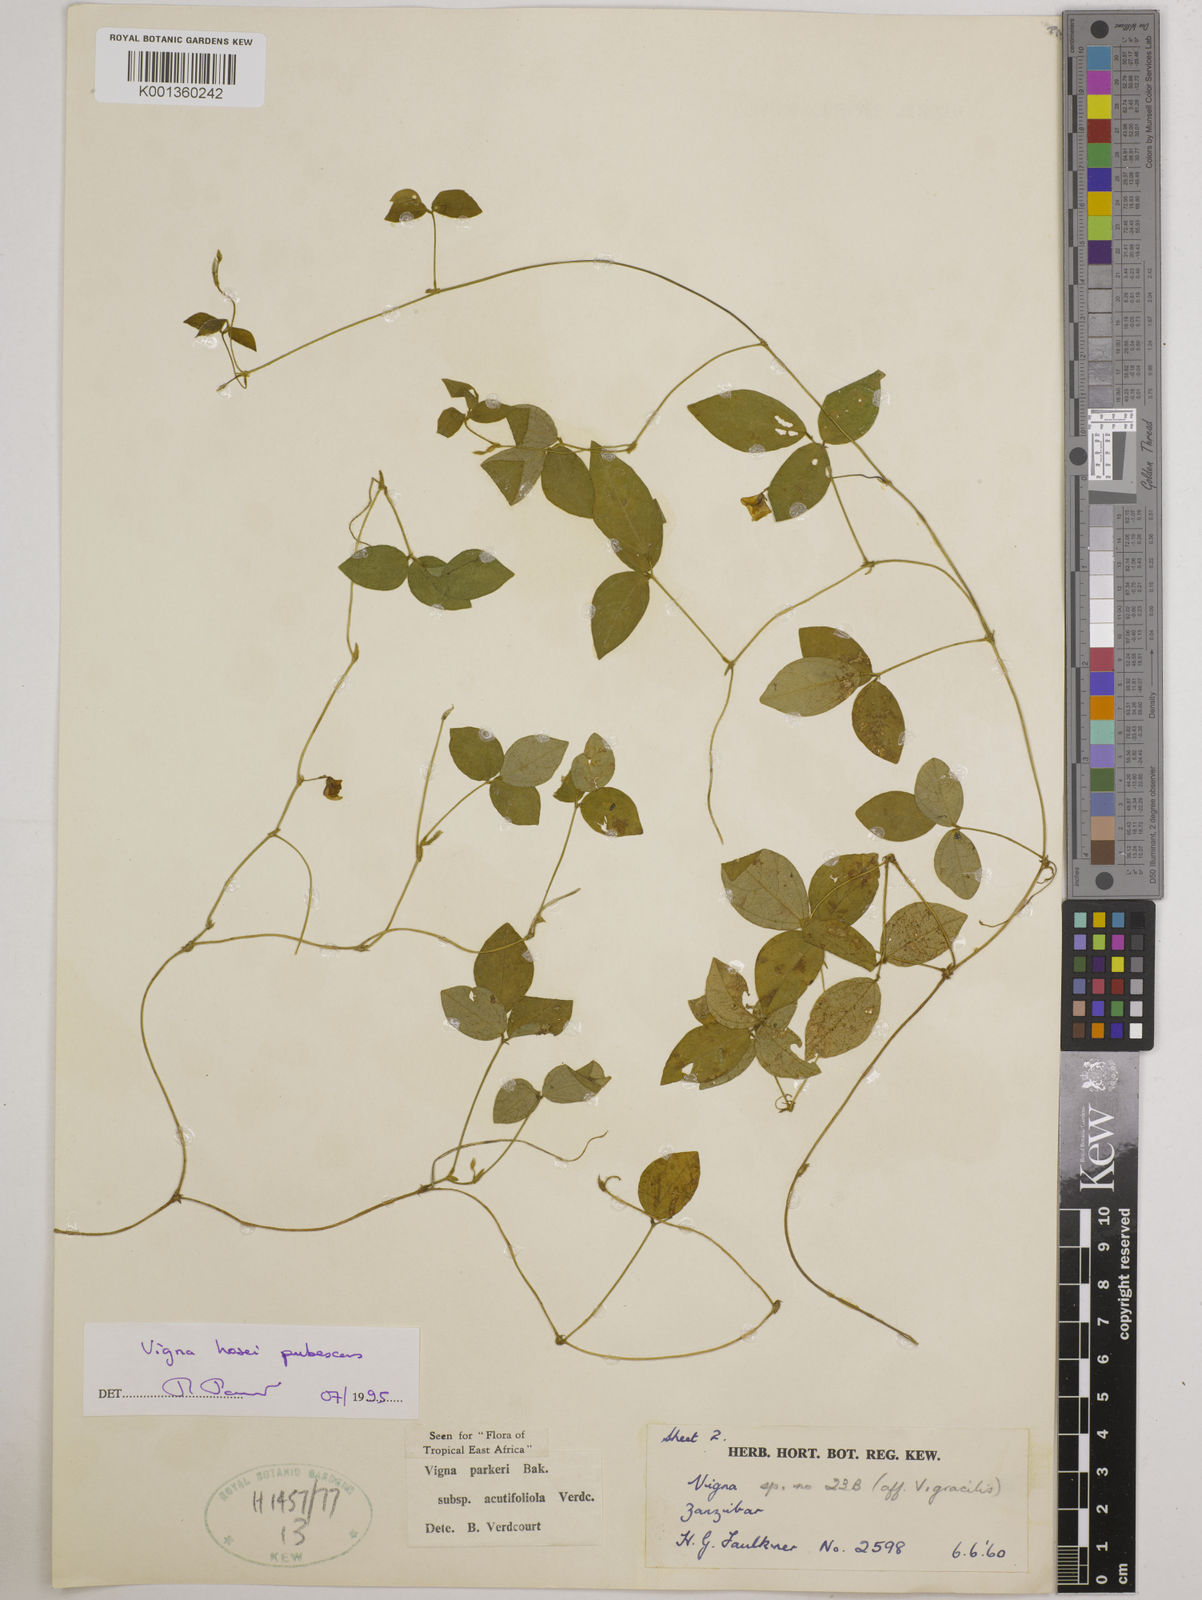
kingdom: Plantae
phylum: Tracheophyta
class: Magnoliopsida
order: Fabales
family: Fabaceae
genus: Vigna
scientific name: Vigna
